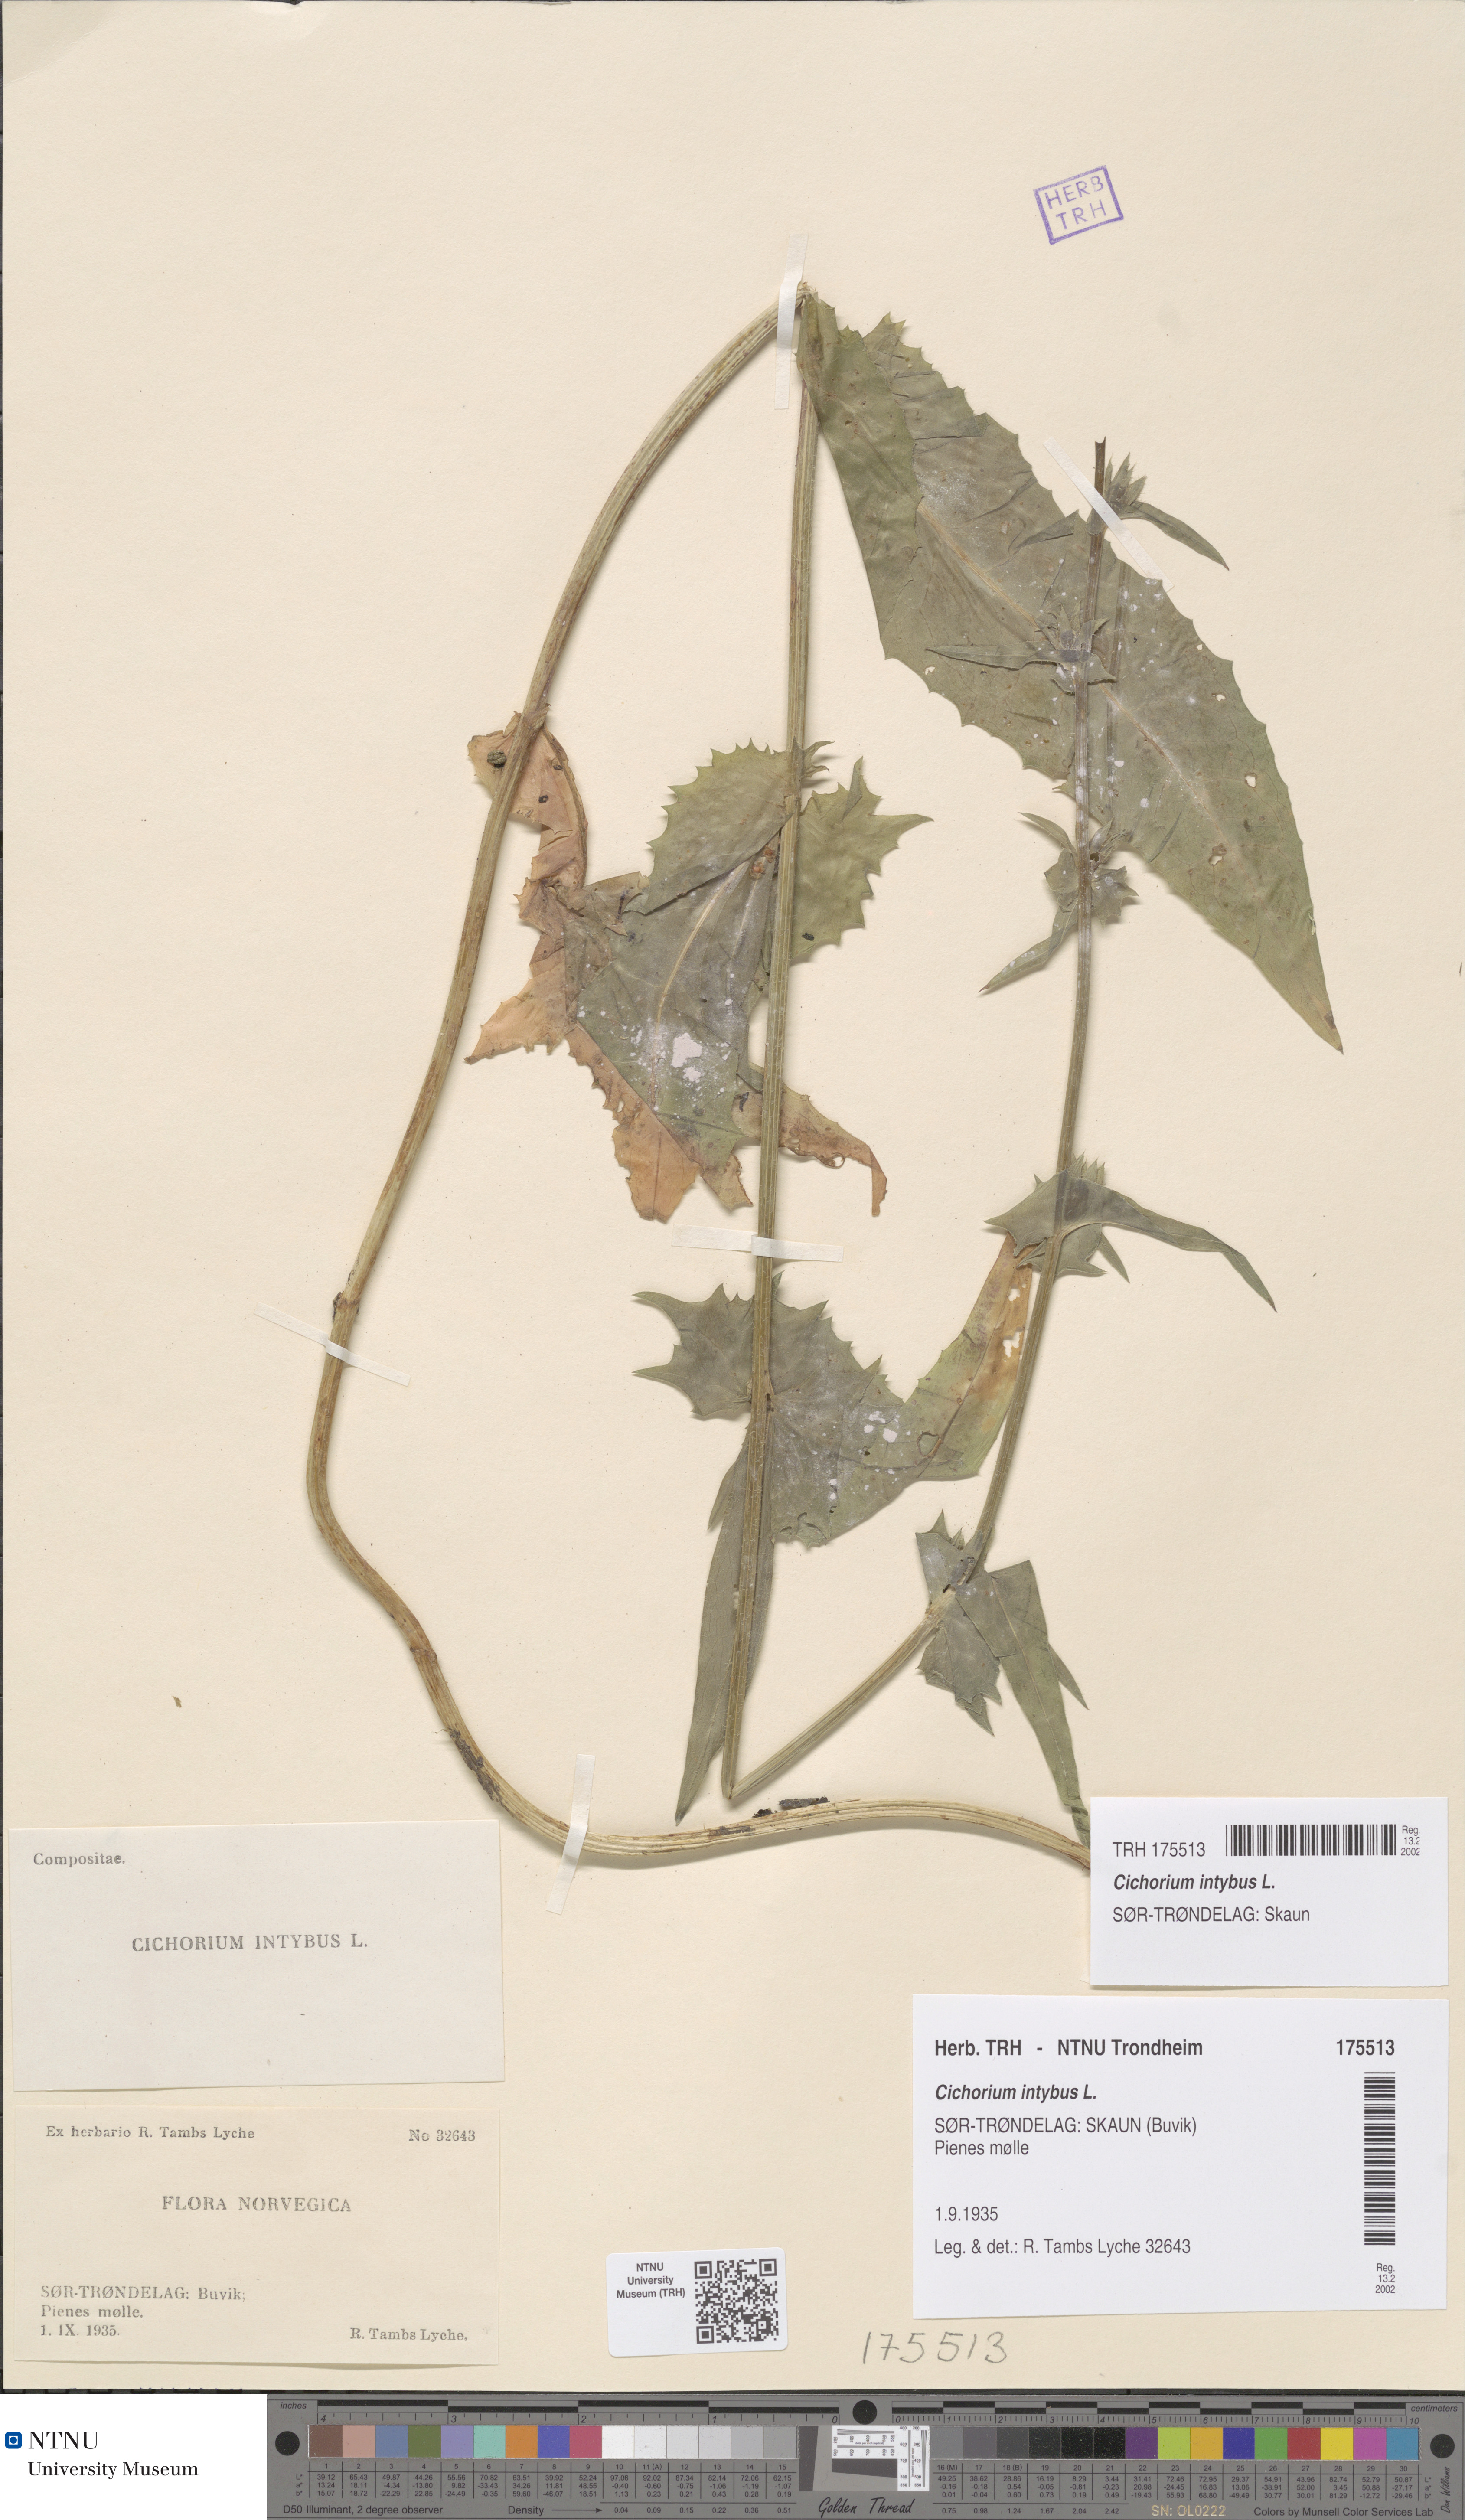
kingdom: Plantae
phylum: Tracheophyta
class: Magnoliopsida
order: Asterales
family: Asteraceae
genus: Cichorium
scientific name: Cichorium intybus
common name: Chicory
